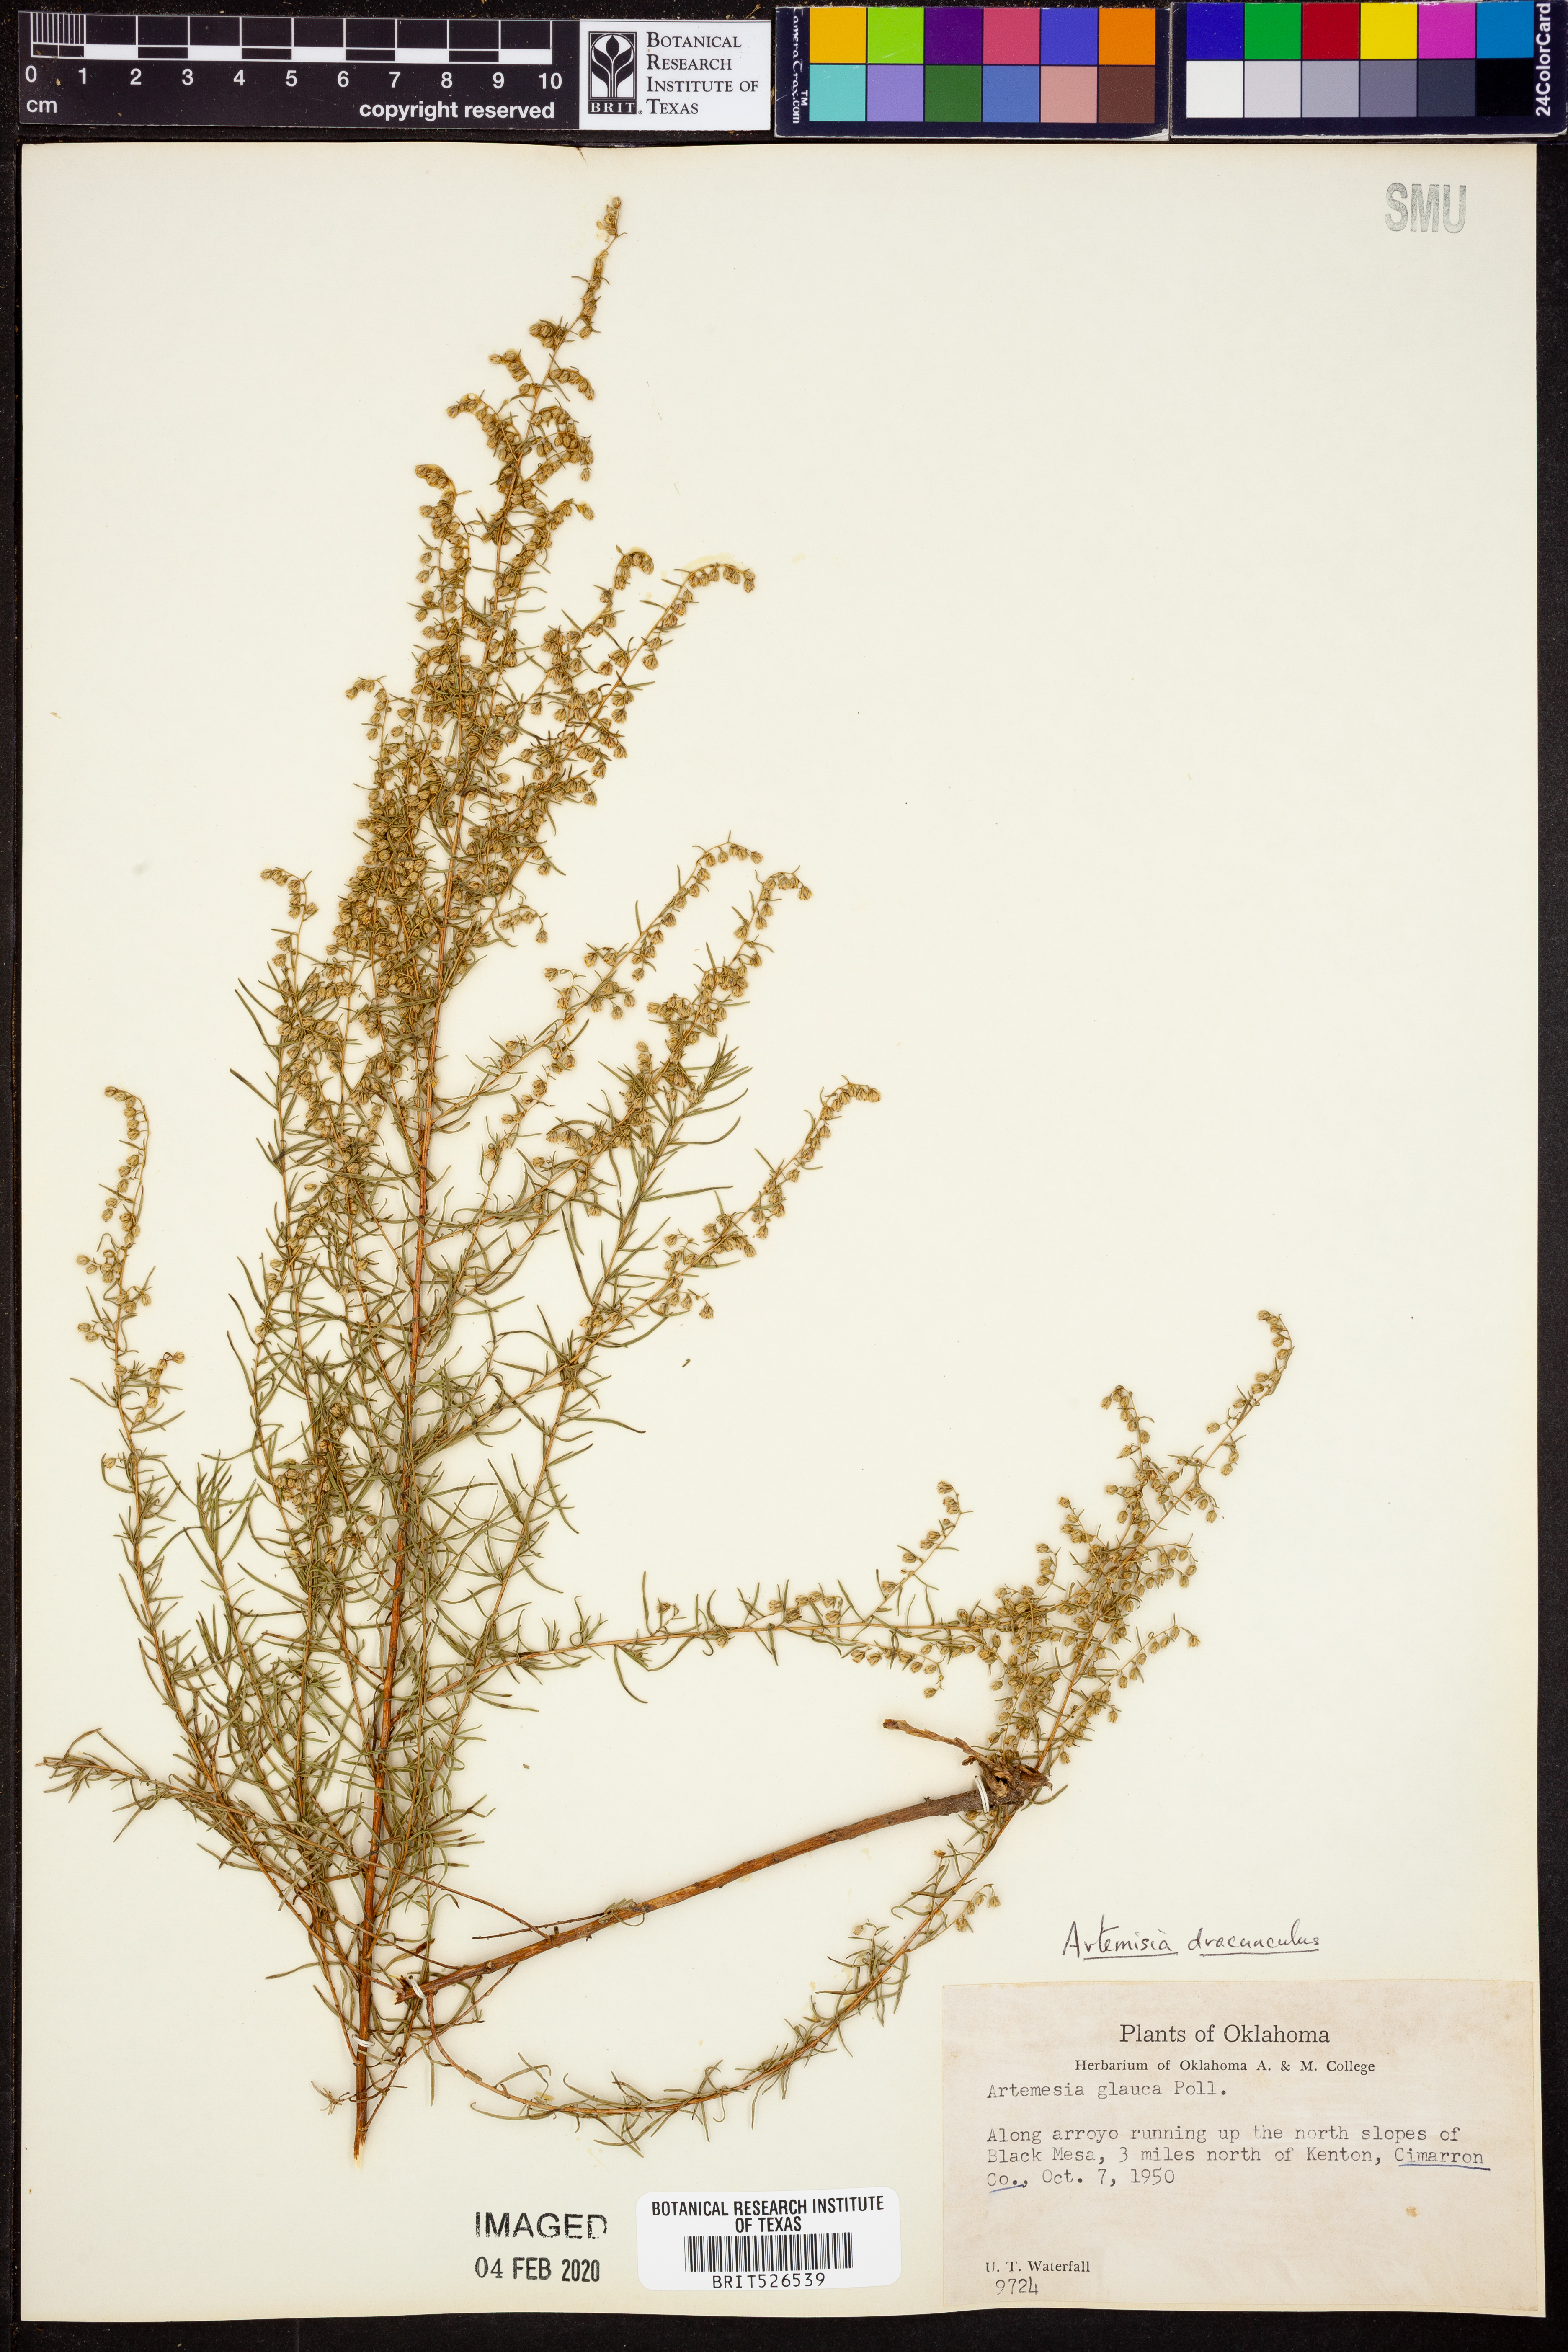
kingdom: Plantae
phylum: Tracheophyta
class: Magnoliopsida
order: Asterales
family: Asteraceae
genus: Artemisia
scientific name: Artemisia dracunculus
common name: Tarragon
